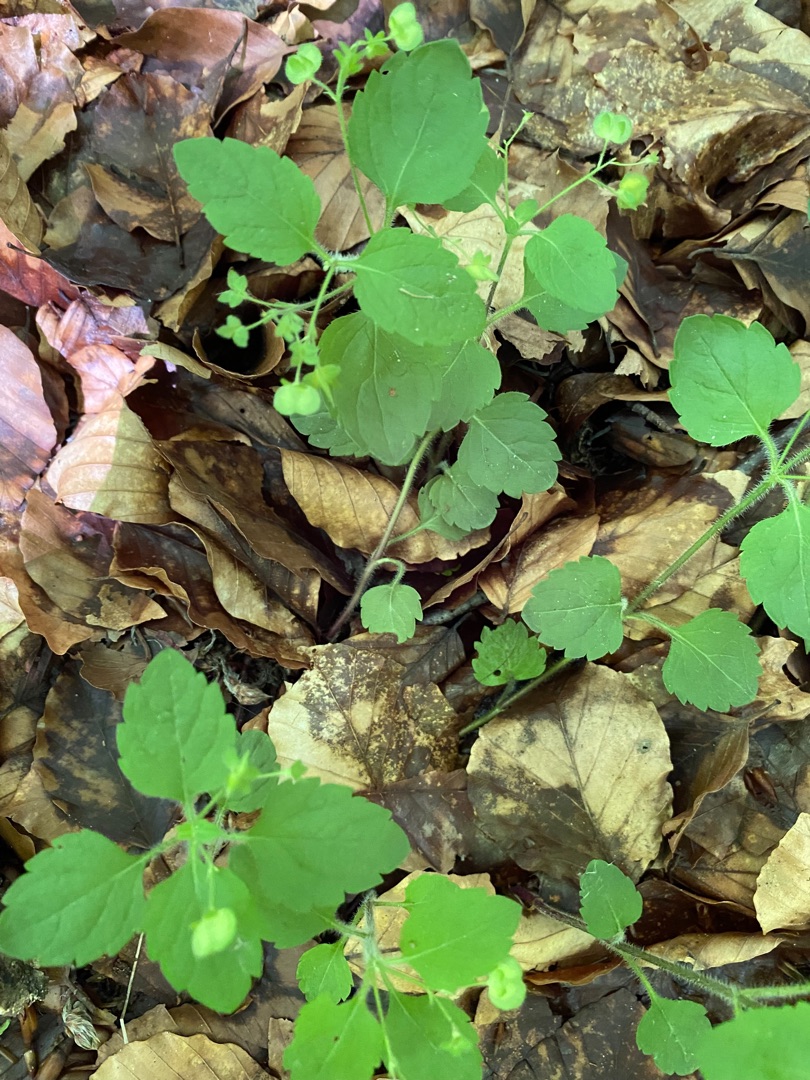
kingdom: Plantae
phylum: Tracheophyta
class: Magnoliopsida
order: Lamiales
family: Plantaginaceae
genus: Veronica
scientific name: Veronica montana
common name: Bjerg-ærenpris
